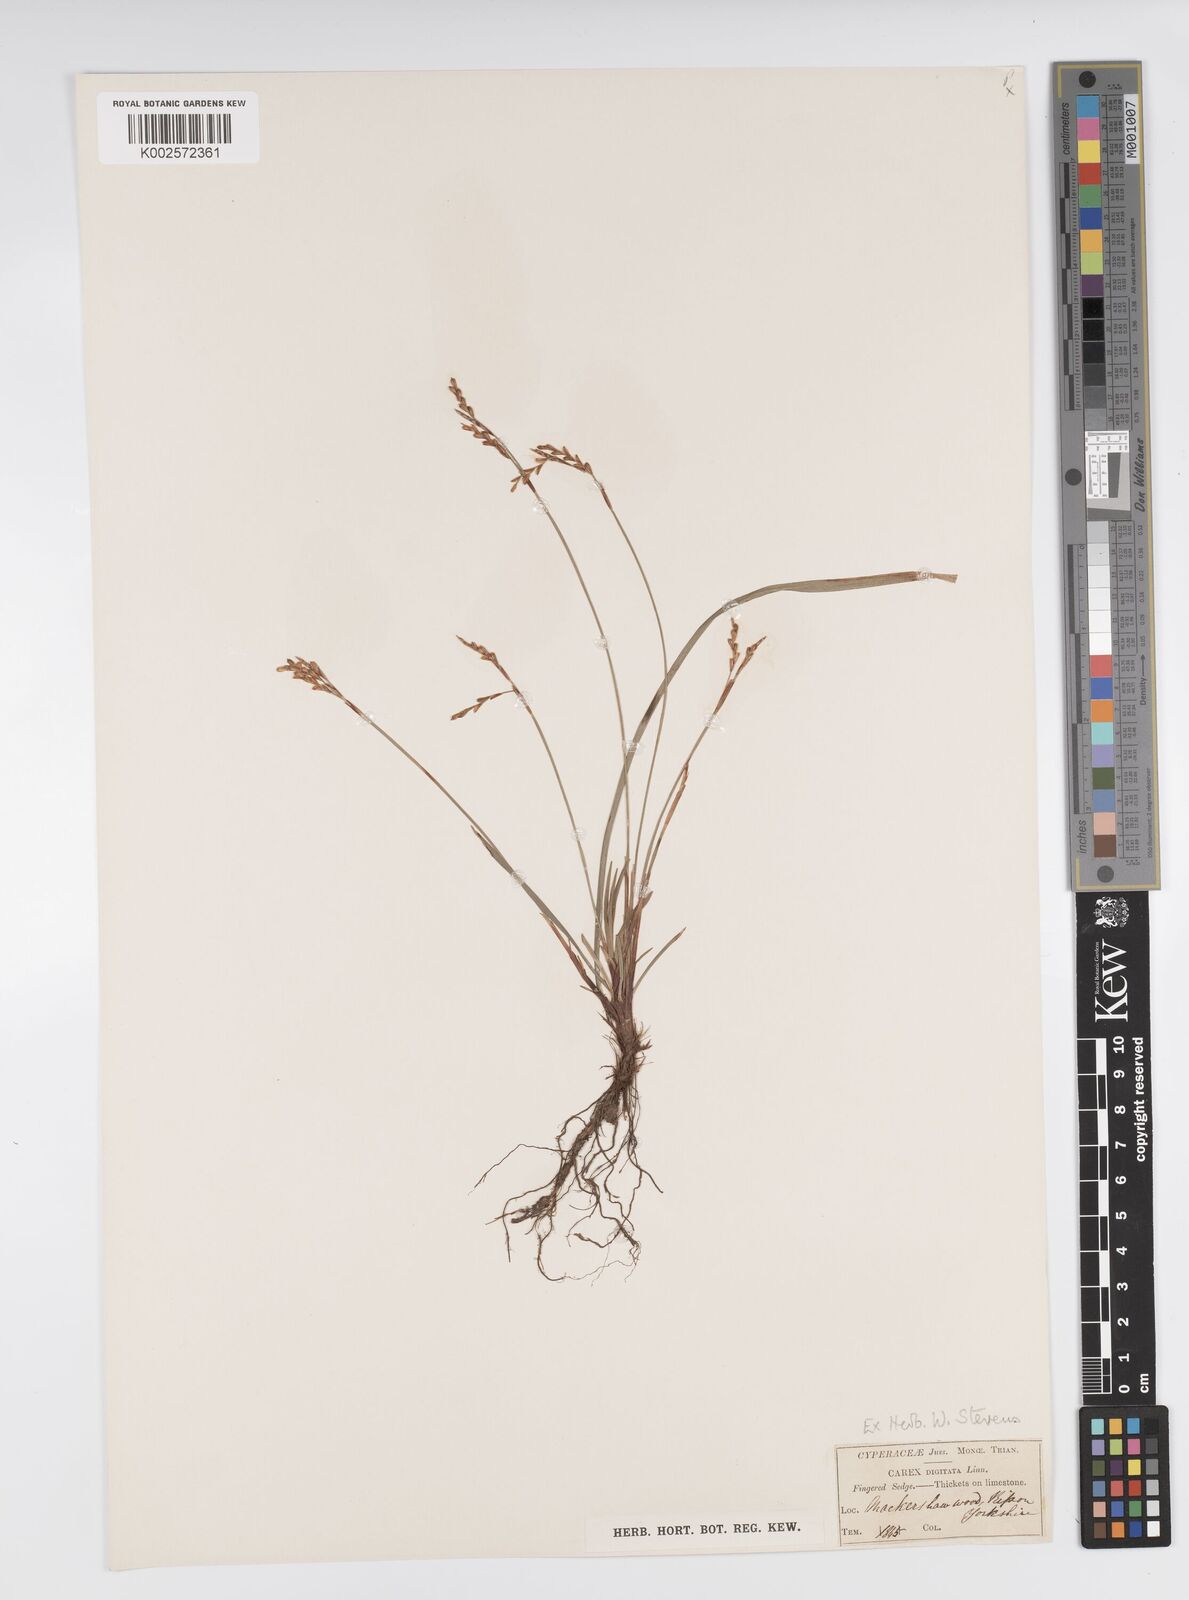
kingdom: Plantae
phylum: Tracheophyta
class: Liliopsida
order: Poales
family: Cyperaceae
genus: Carex
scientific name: Carex digitata
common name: Fingered sedge
